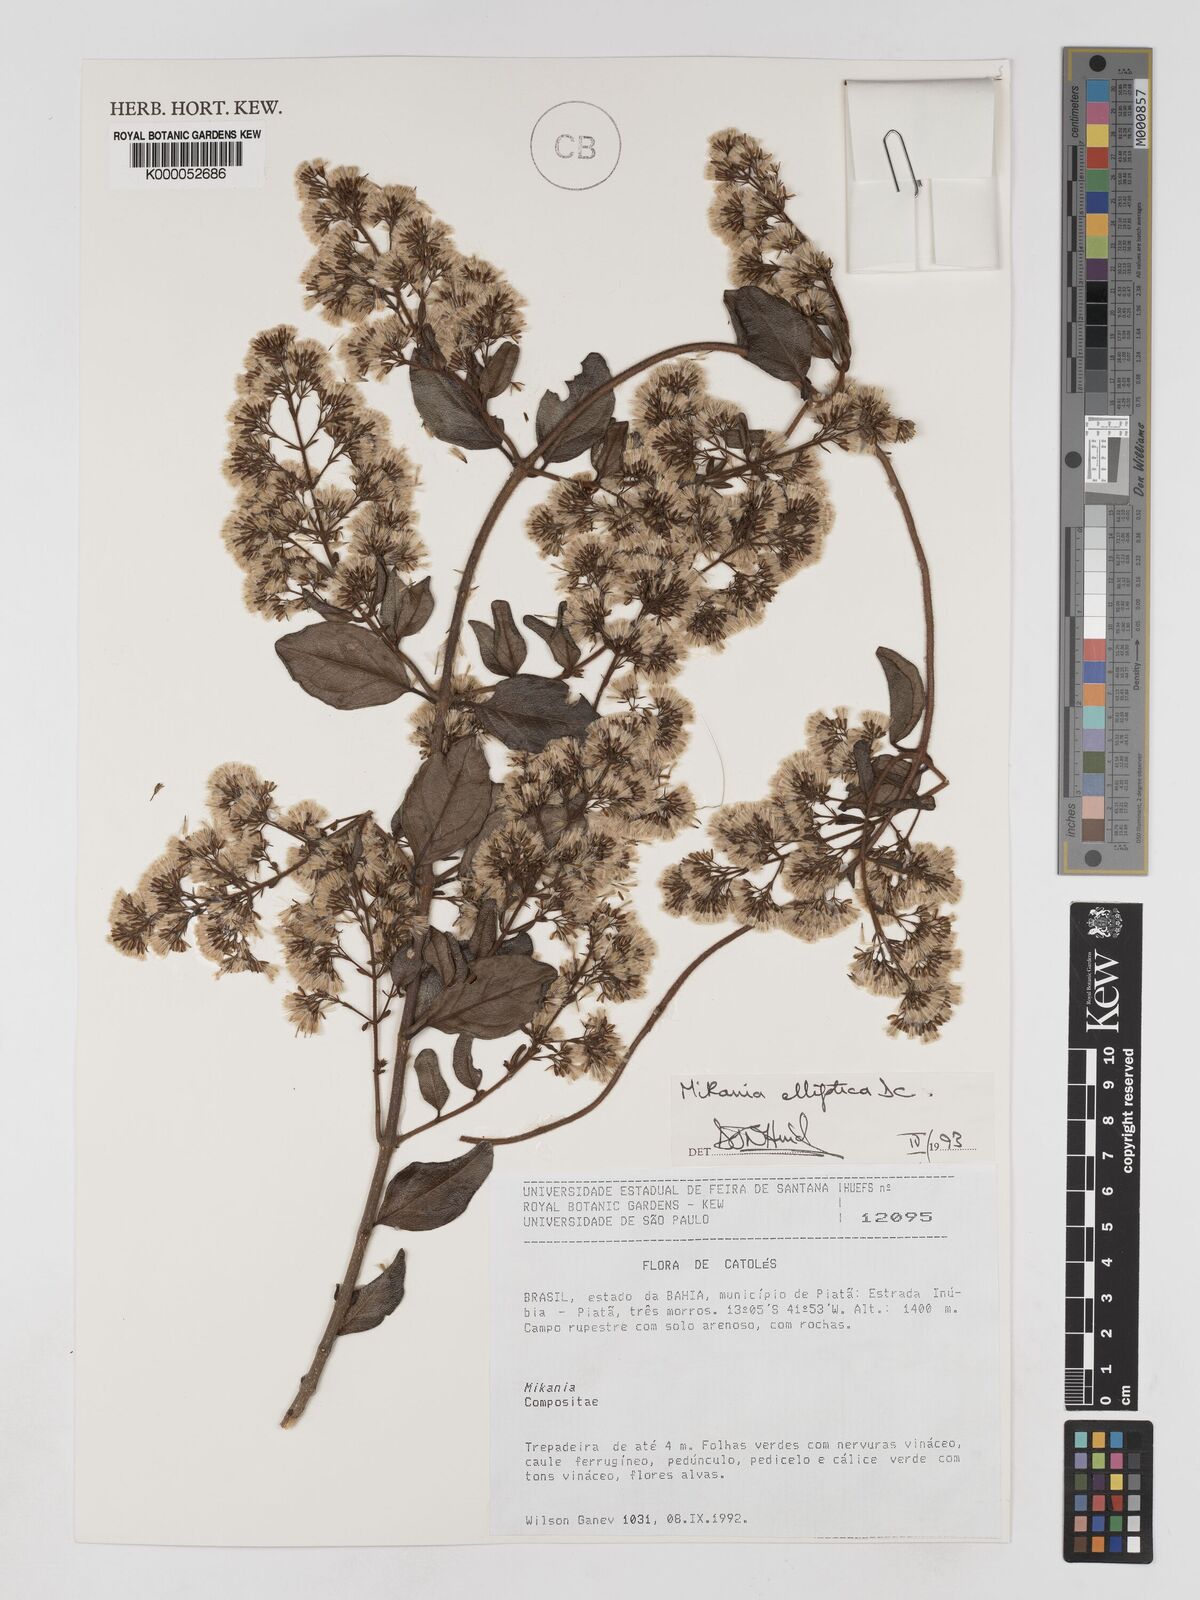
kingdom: Plantae
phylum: Tracheophyta
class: Magnoliopsida
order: Asterales
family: Asteraceae
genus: Mikania
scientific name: Mikania elliptica
